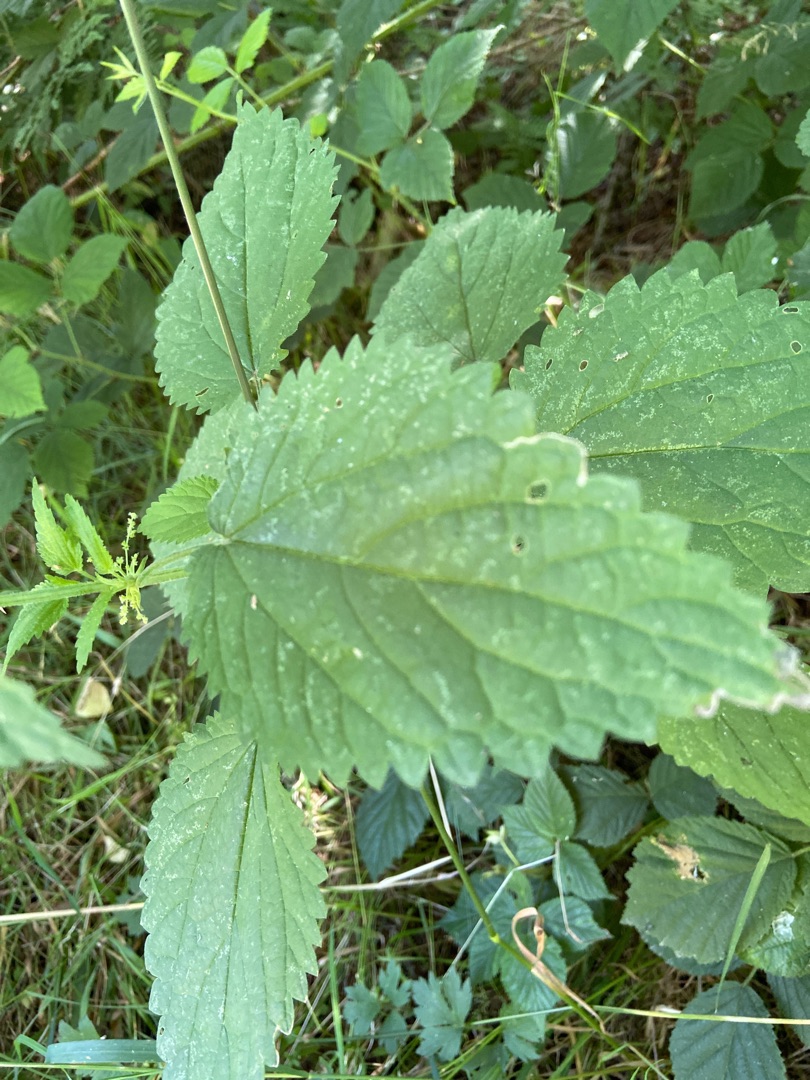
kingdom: Plantae
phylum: Tracheophyta
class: Magnoliopsida
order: Rosales
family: Urticaceae
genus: Urtica
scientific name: Urtica dioica
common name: Stor nælde
